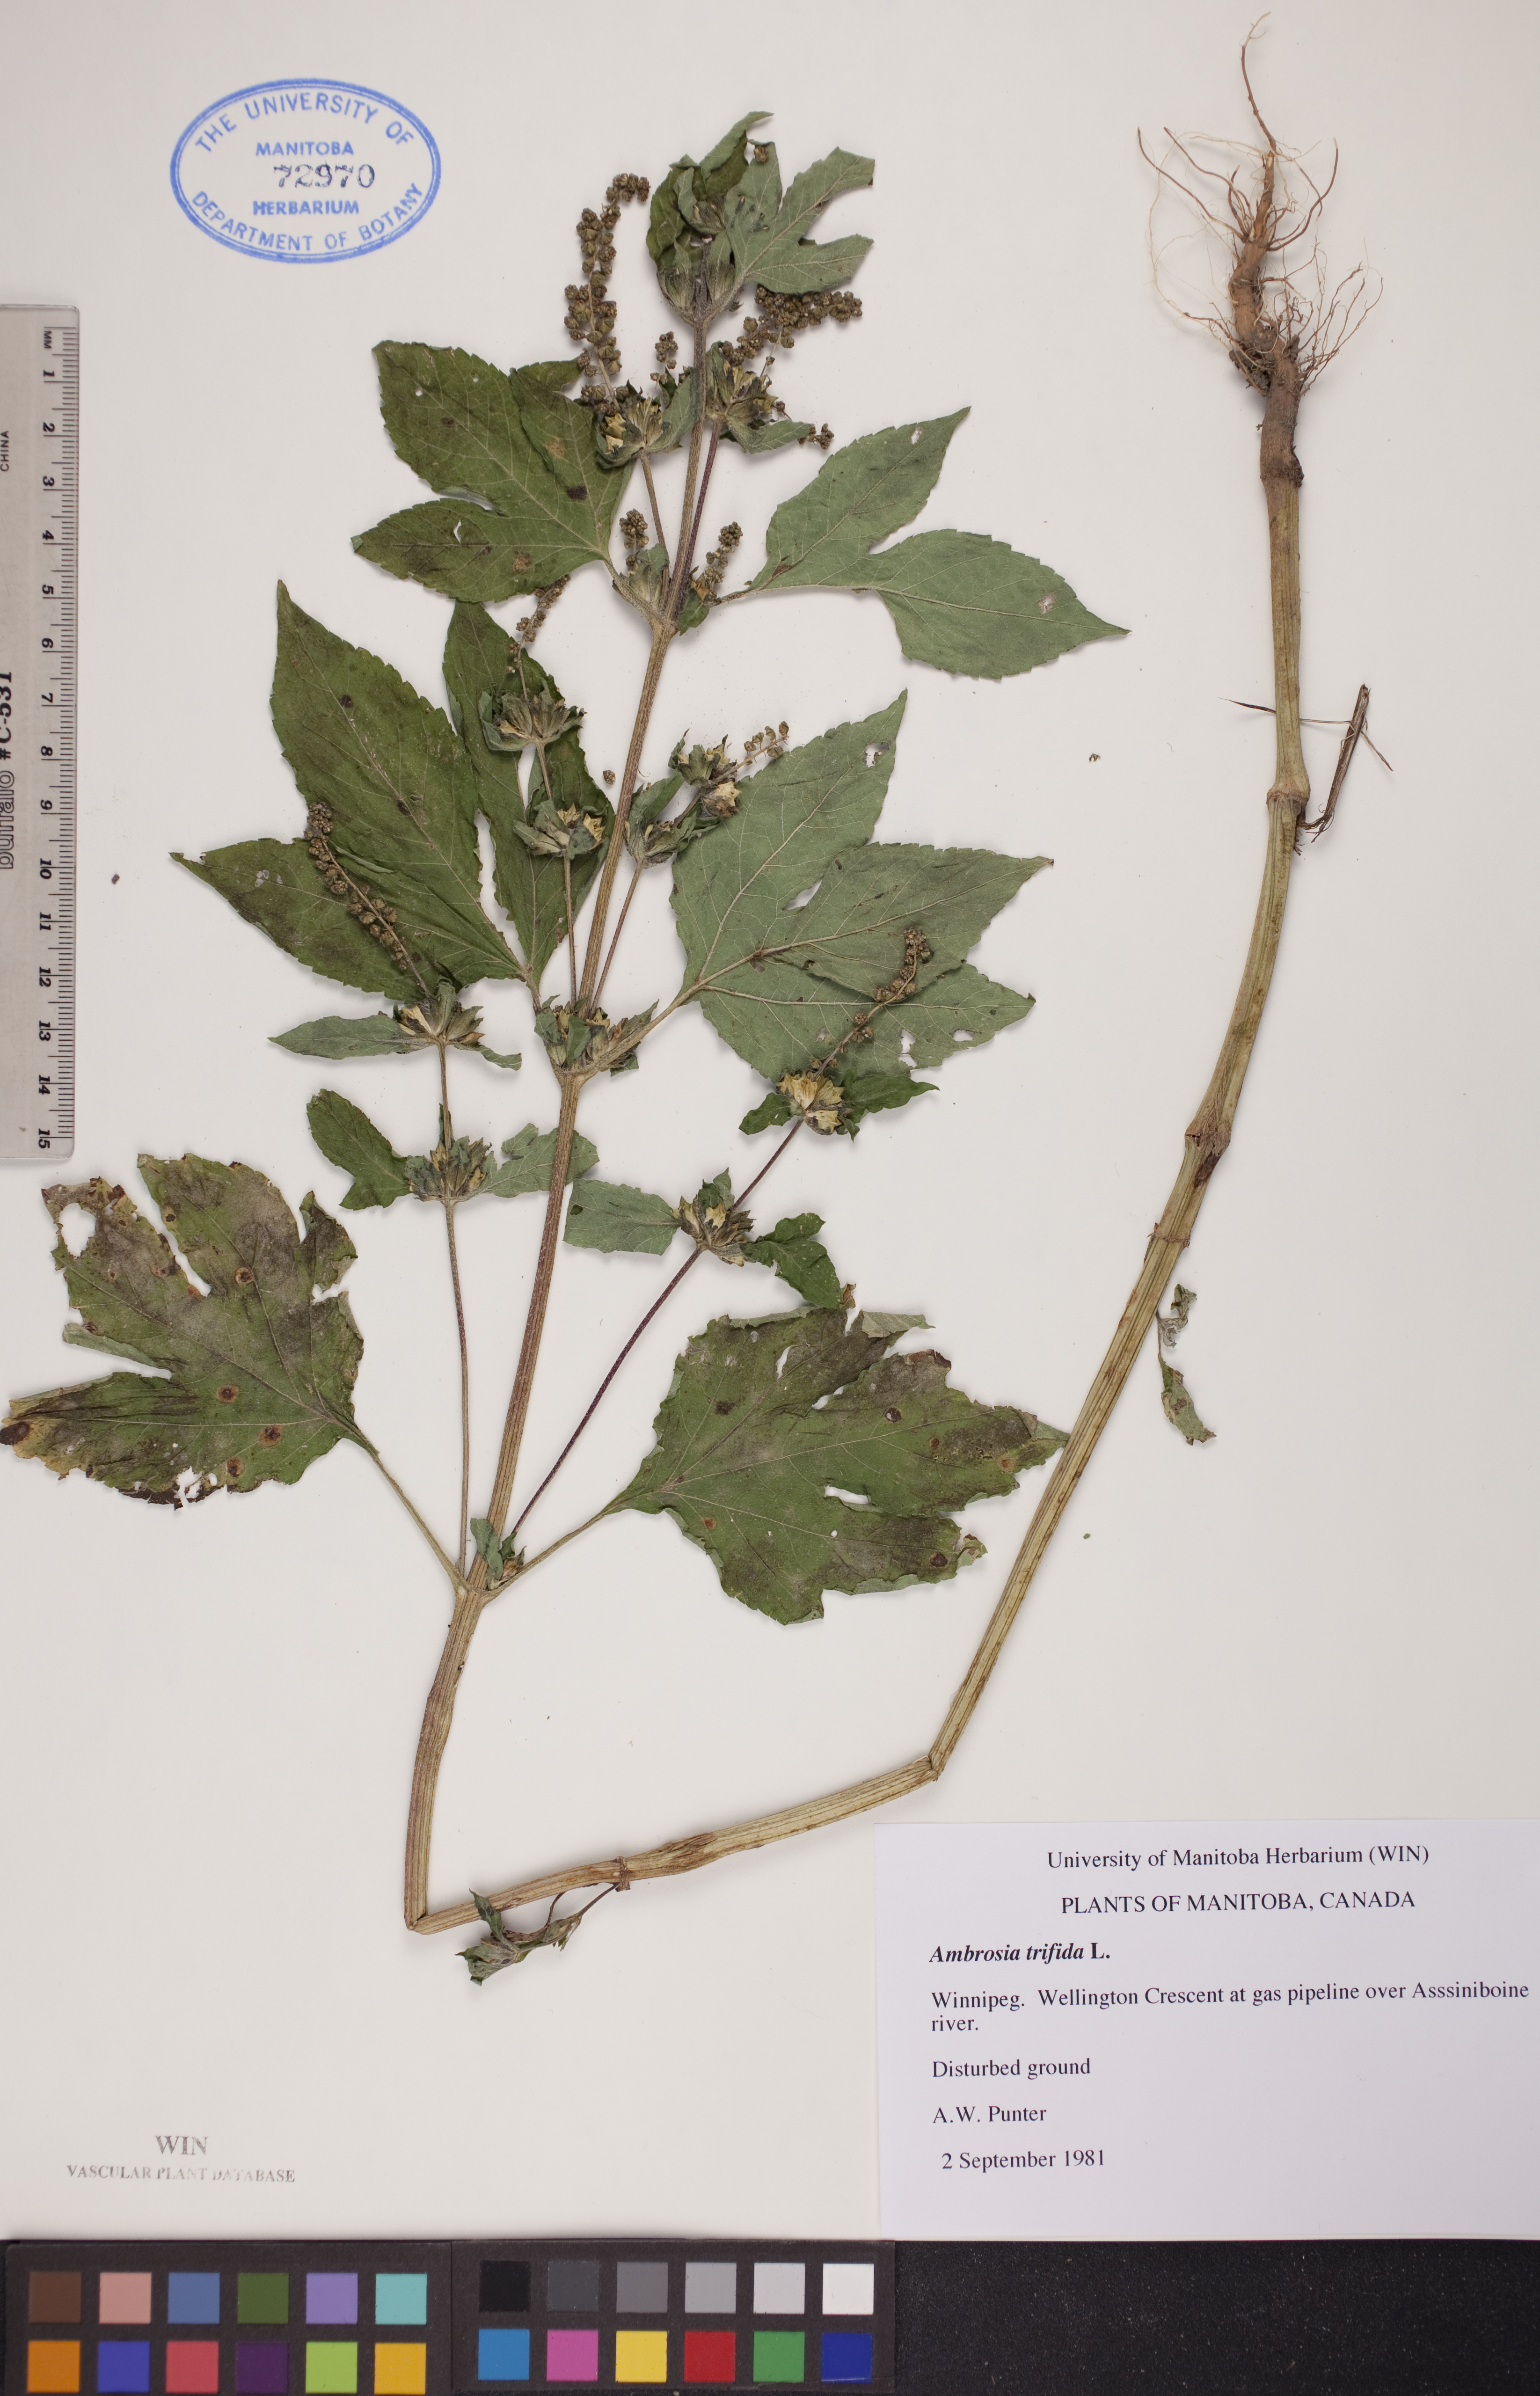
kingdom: Plantae
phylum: Tracheophyta
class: Magnoliopsida
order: Asterales
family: Asteraceae
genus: Ambrosia
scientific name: Ambrosia trifida
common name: Giant ragweed
